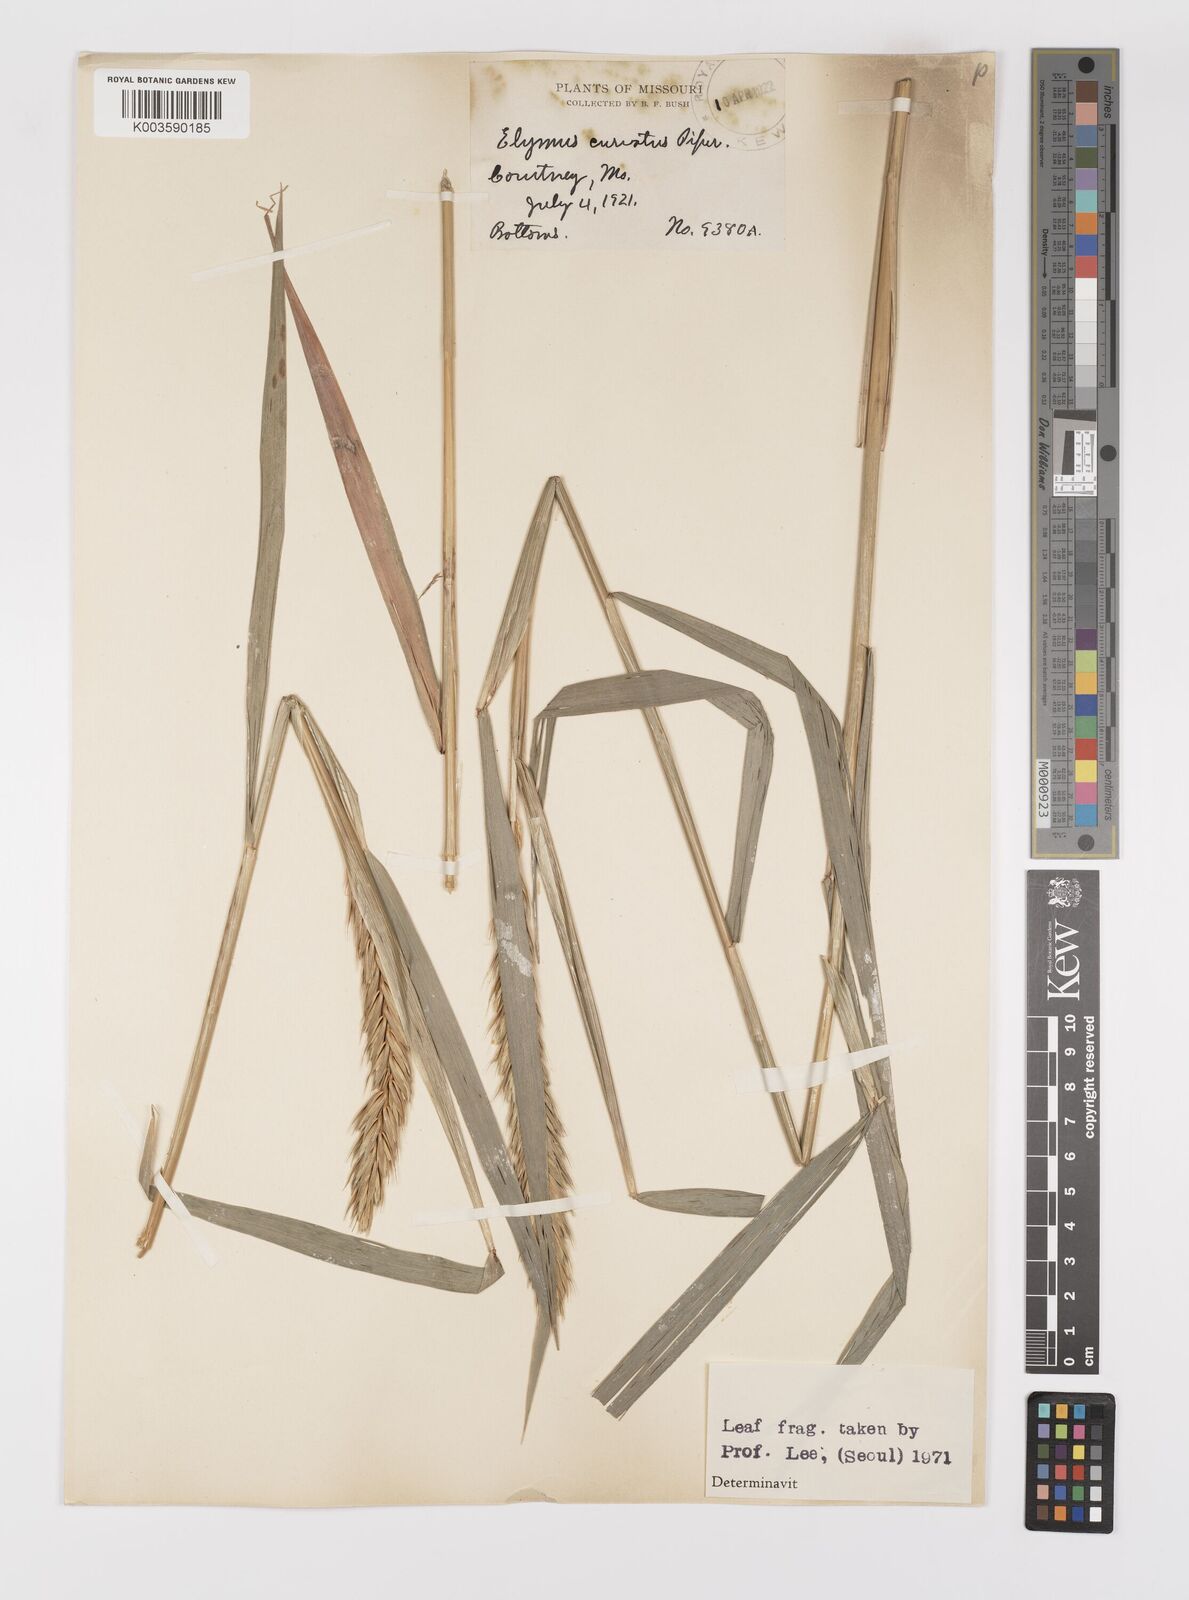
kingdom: Plantae
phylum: Tracheophyta
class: Liliopsida
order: Poales
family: Poaceae
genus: Elymus
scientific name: Elymus curvatus
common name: Awnless wild rye
